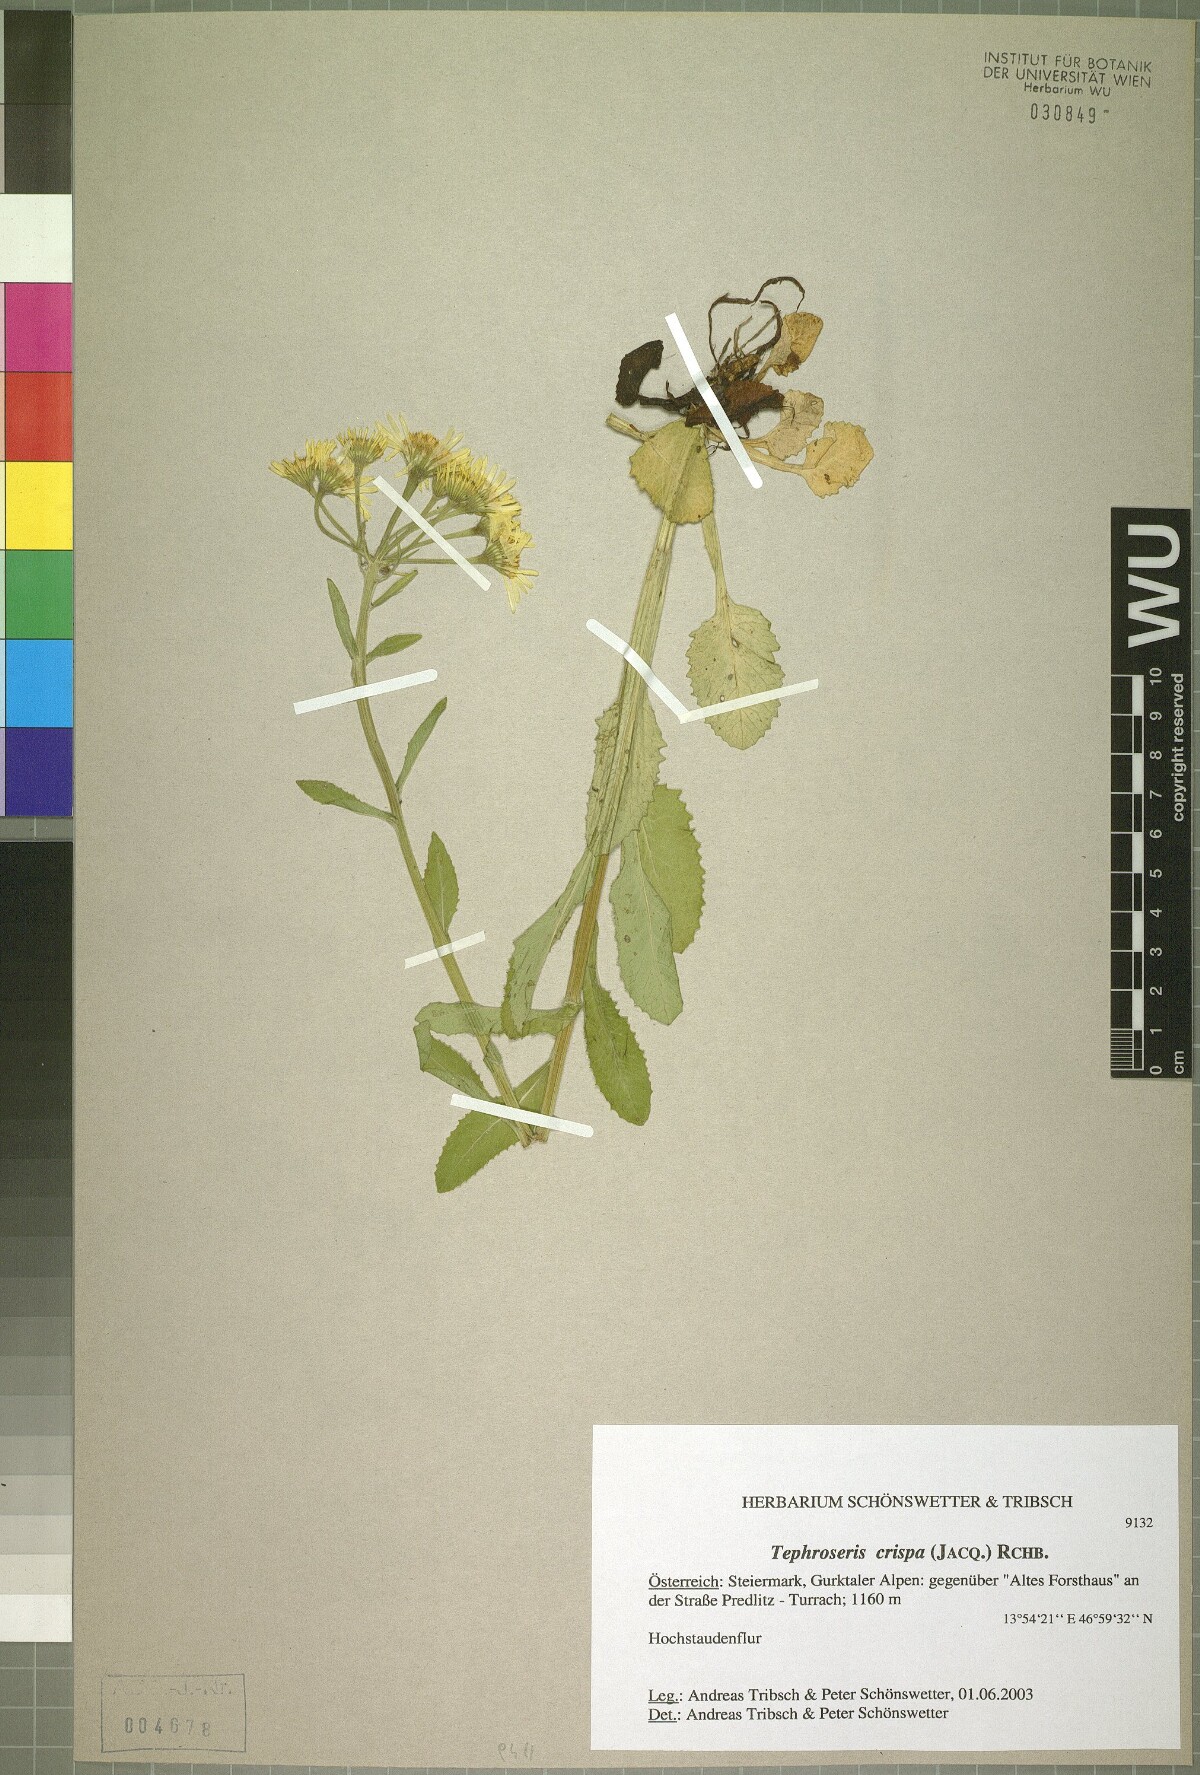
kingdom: Plantae
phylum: Tracheophyta
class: Magnoliopsida
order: Asterales
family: Asteraceae
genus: Tephroseris
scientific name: Tephroseris crispa
